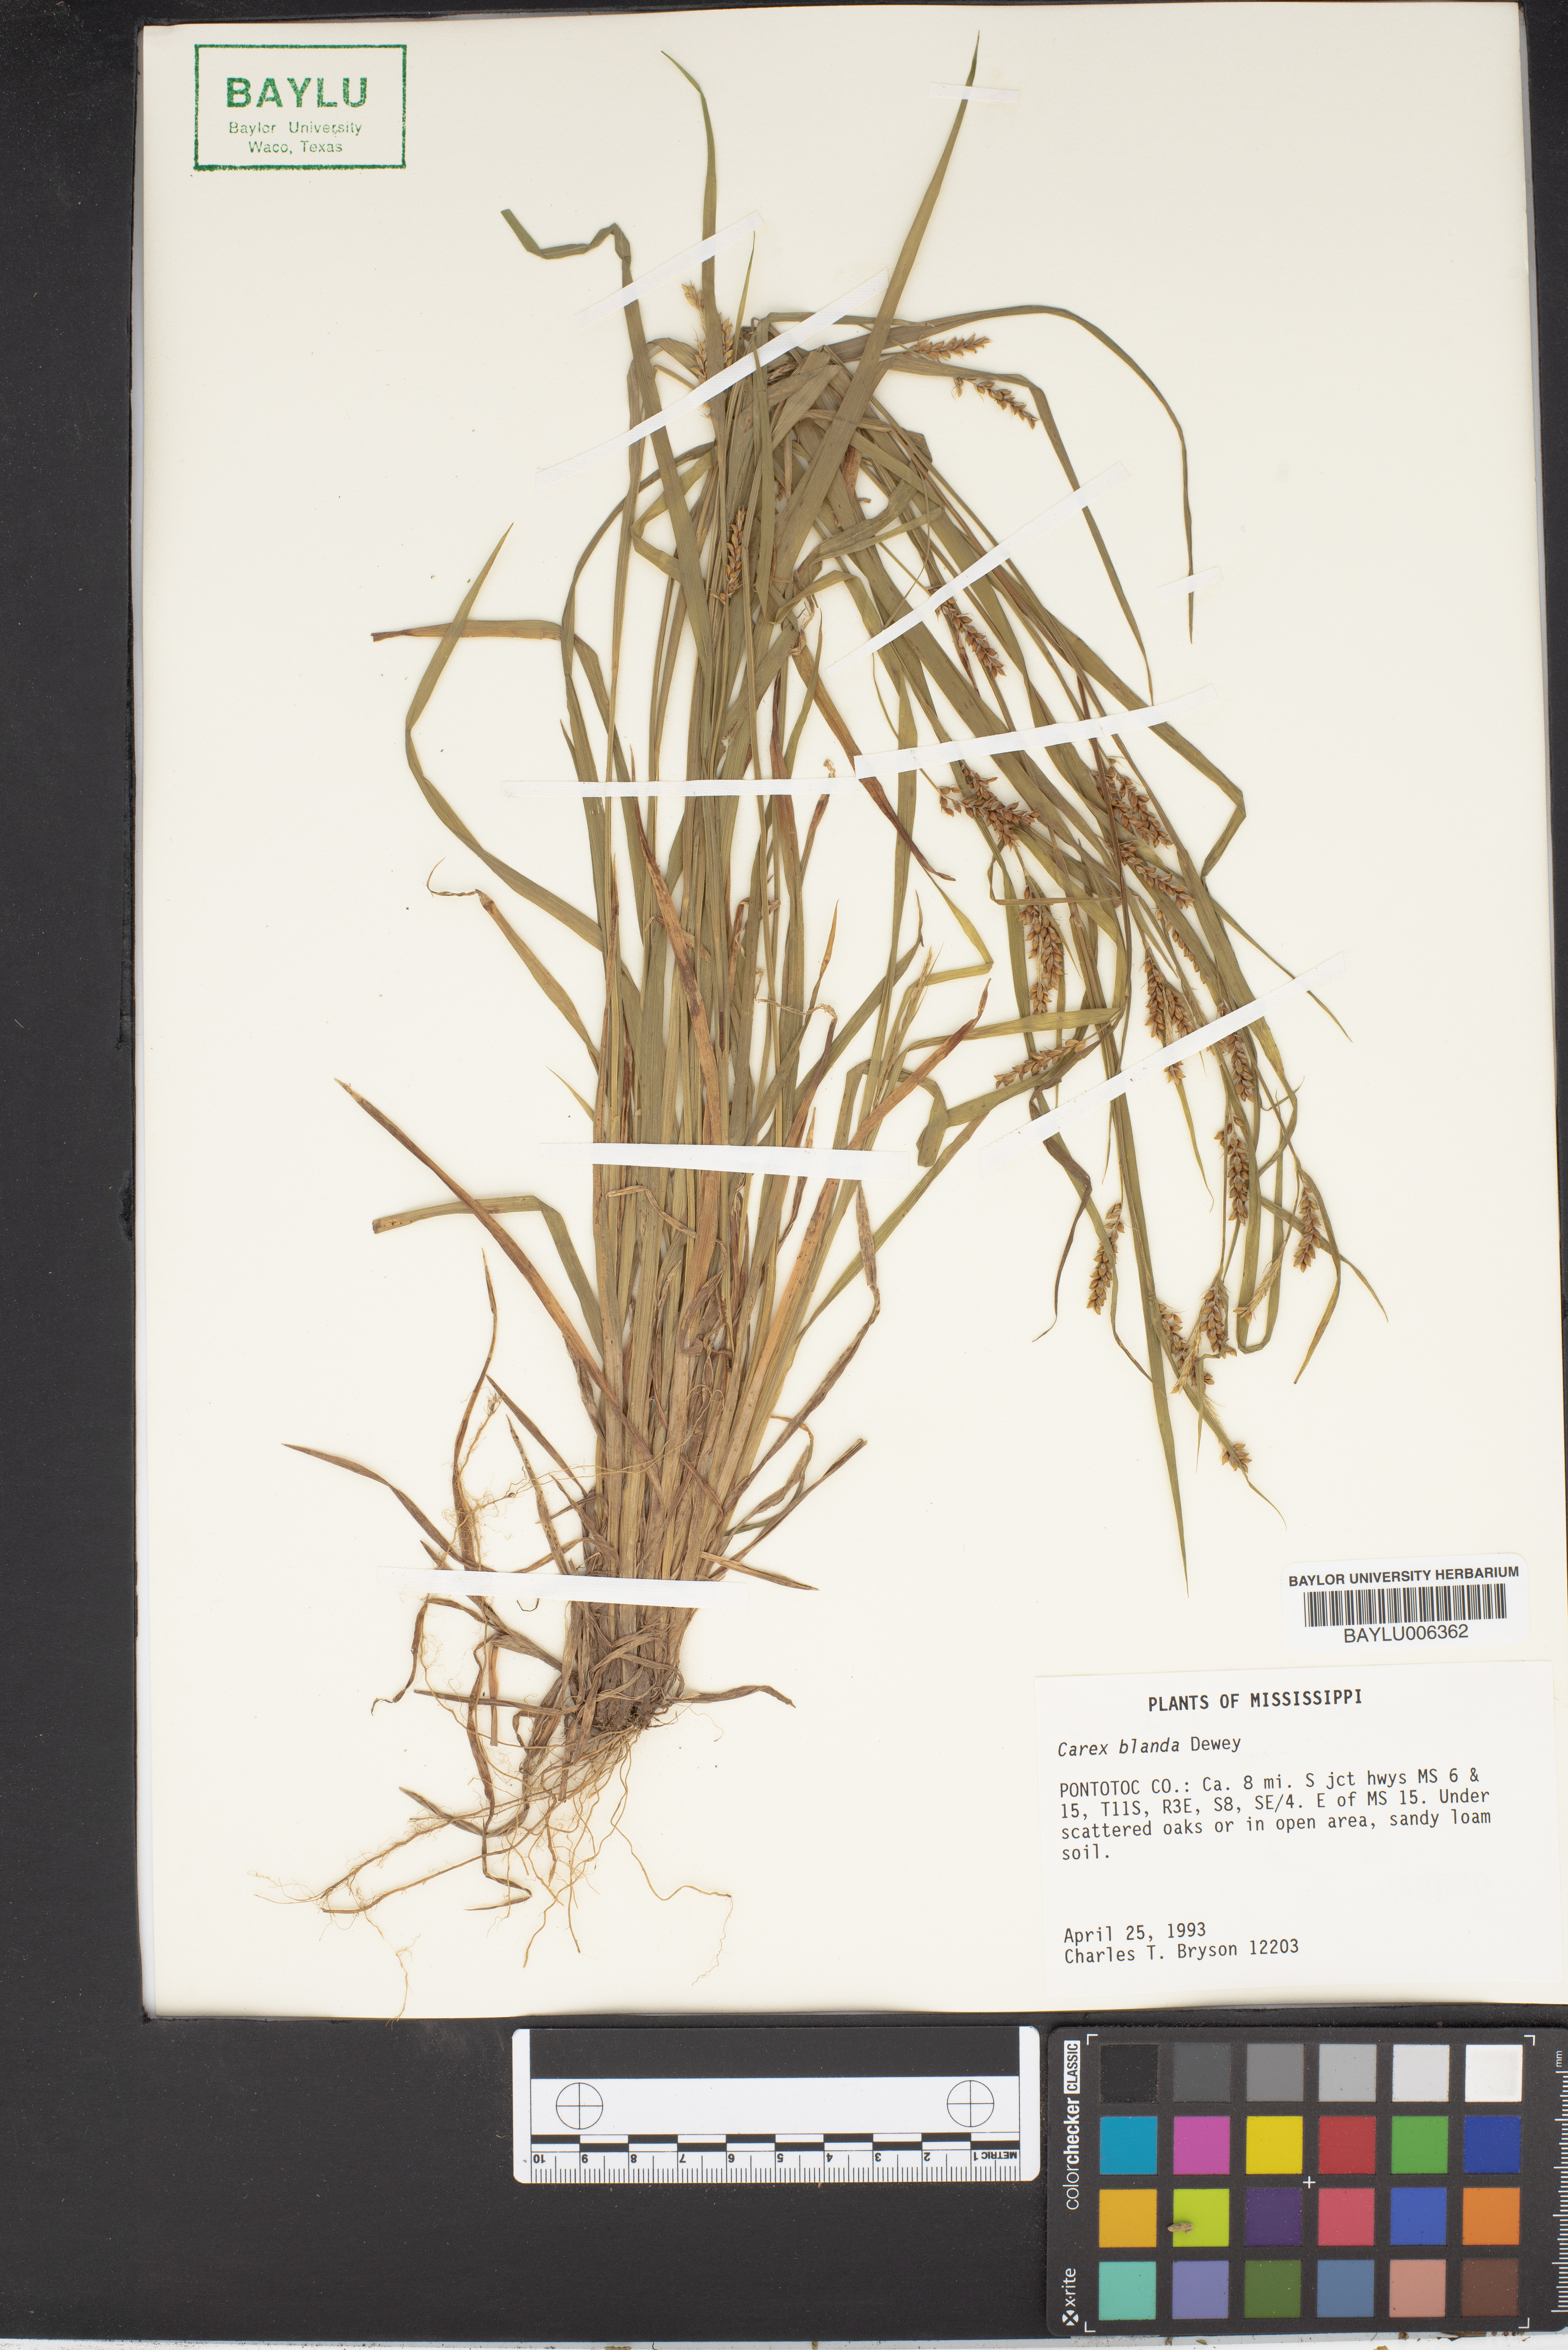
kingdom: Plantae
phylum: Tracheophyta
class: Liliopsida
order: Poales
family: Cyperaceae
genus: Carex
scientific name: Carex blanda
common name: Bland sedge
